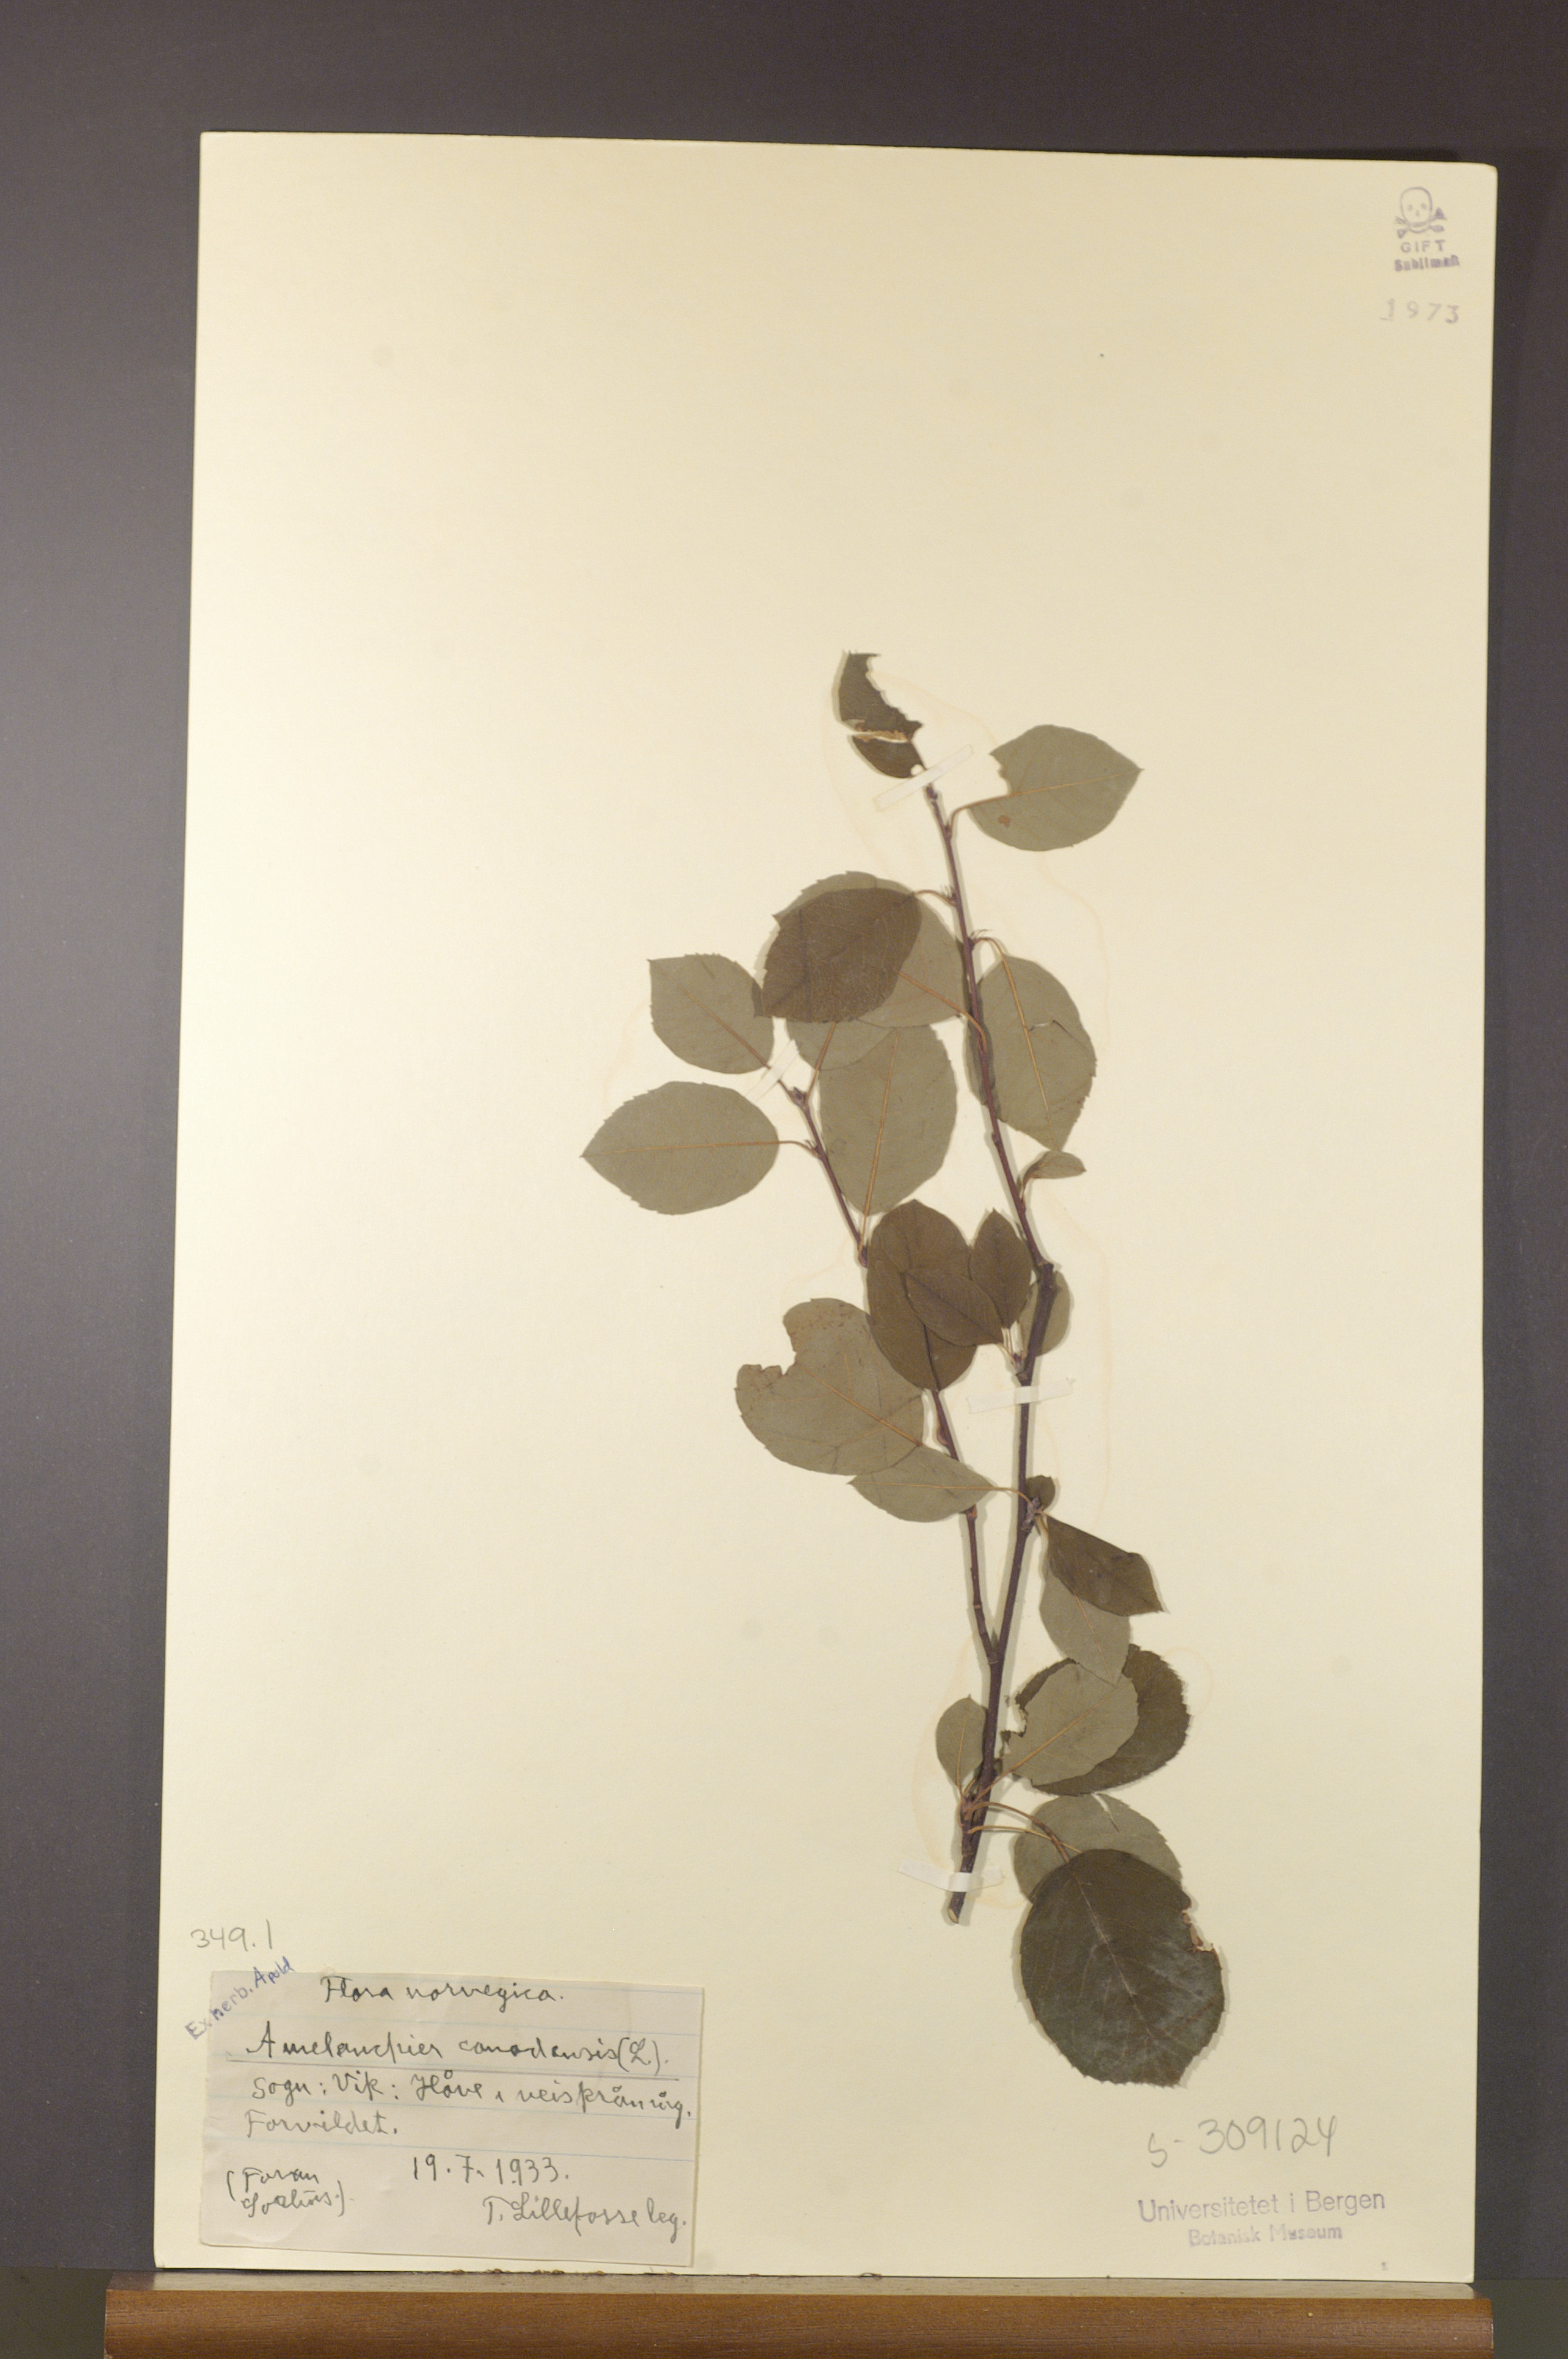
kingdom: Plantae
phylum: Tracheophyta
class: Magnoliopsida
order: Rosales
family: Rosaceae
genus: Amelanchier
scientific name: Amelanchier lamarckii
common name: Juneberry
